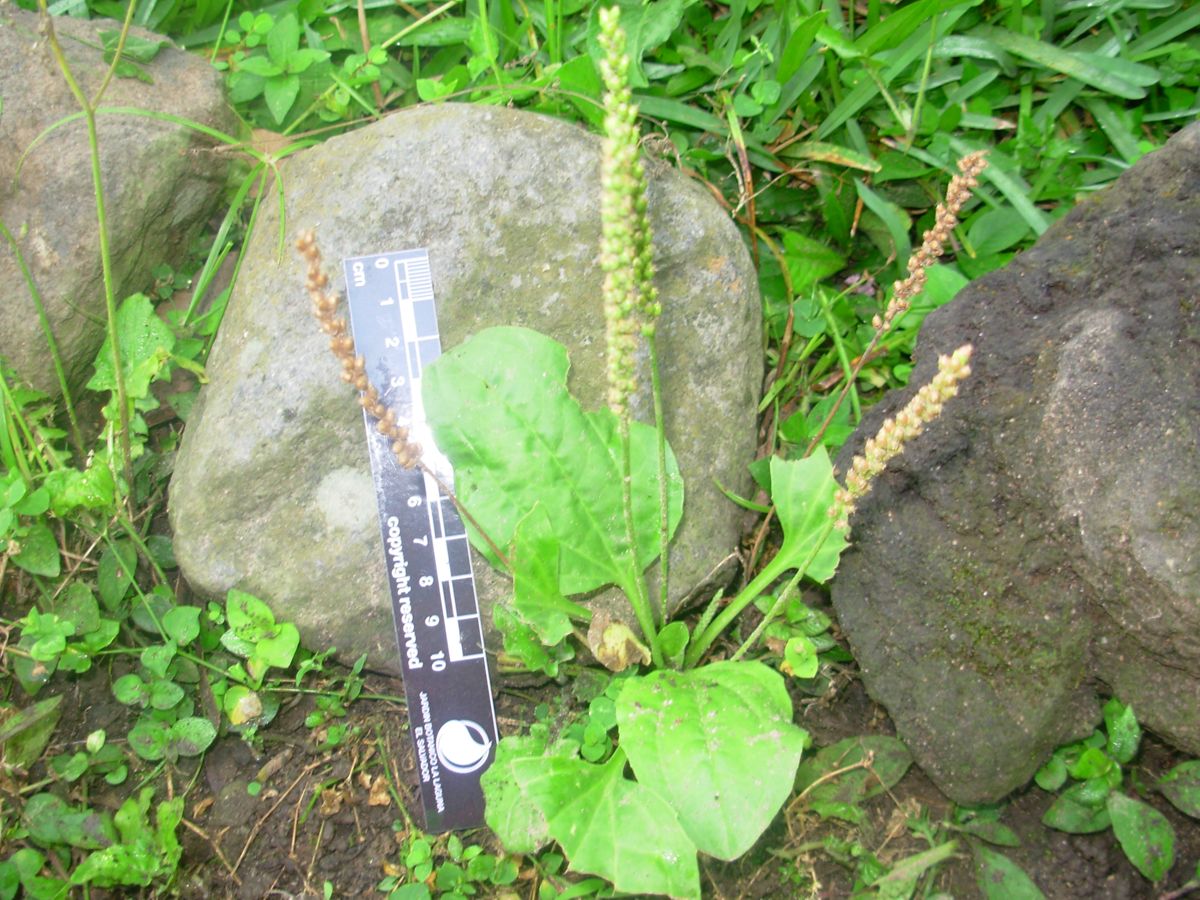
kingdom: Plantae
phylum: Tracheophyta
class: Magnoliopsida
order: Lamiales
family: Plantaginaceae
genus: Plantago
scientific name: Plantago major
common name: Common plantain
